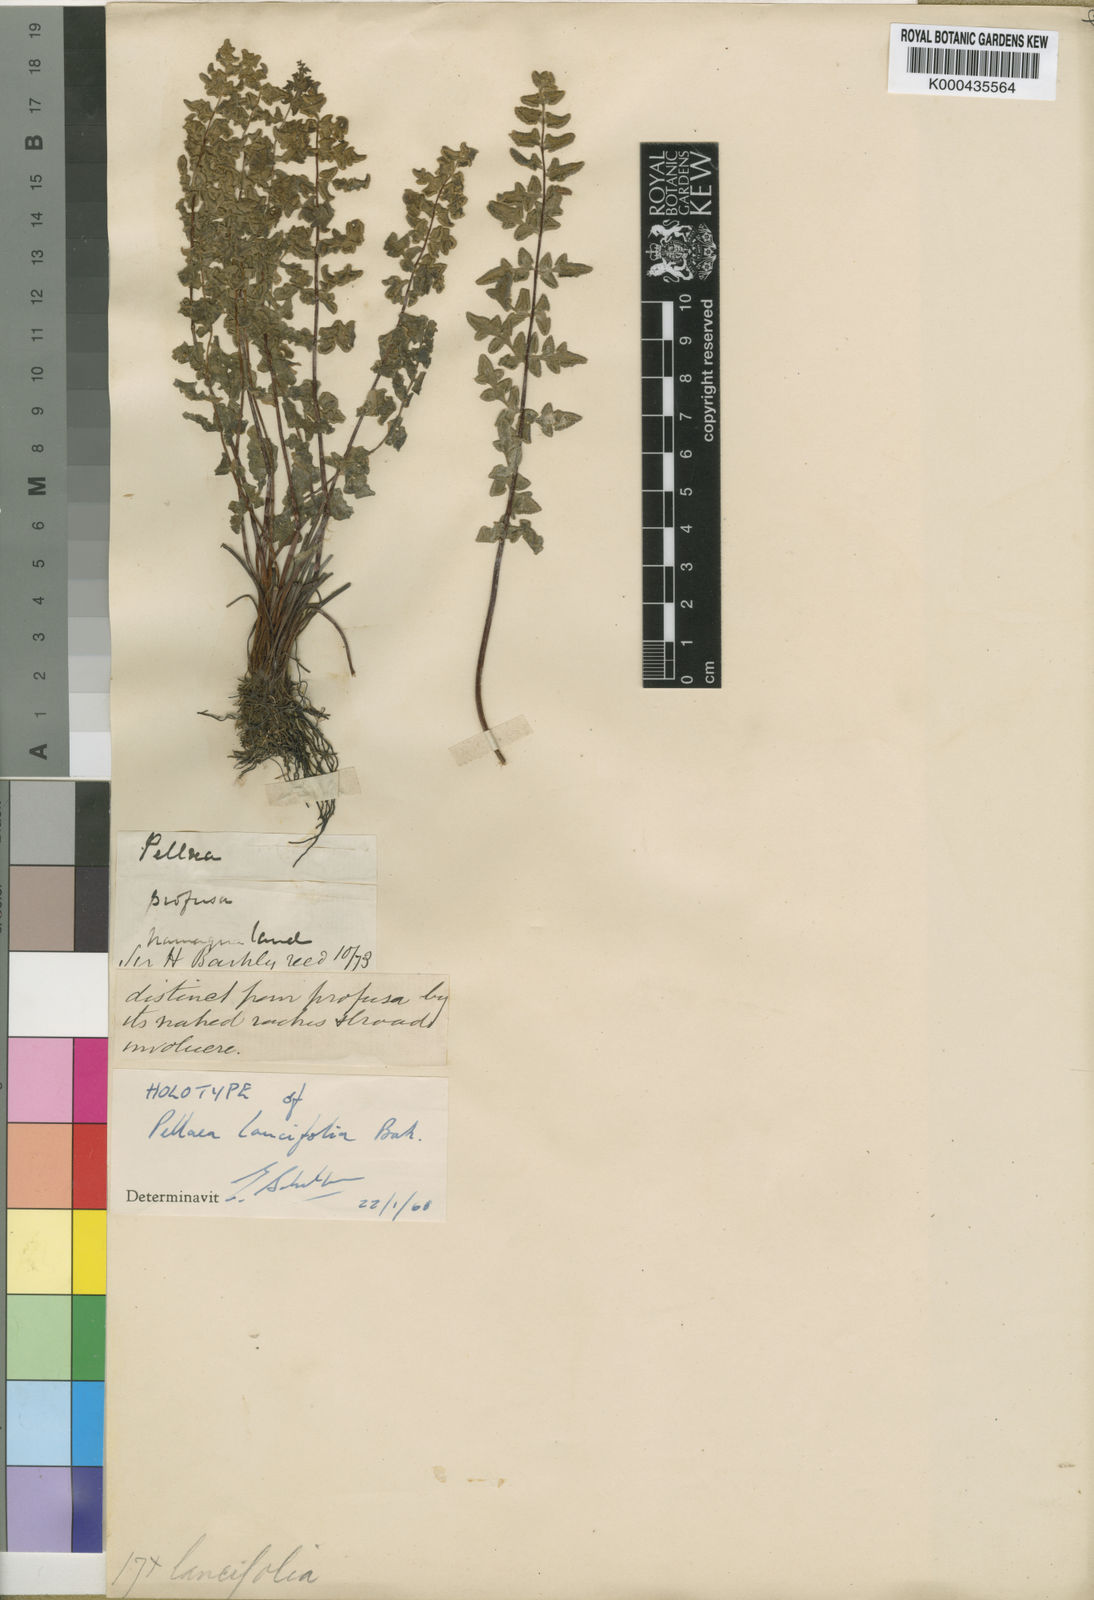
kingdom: Plantae
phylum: Tracheophyta
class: Polypodiopsida
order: Polypodiales
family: Pteridaceae
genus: Cheilanthes
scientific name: Cheilanthes hastata
